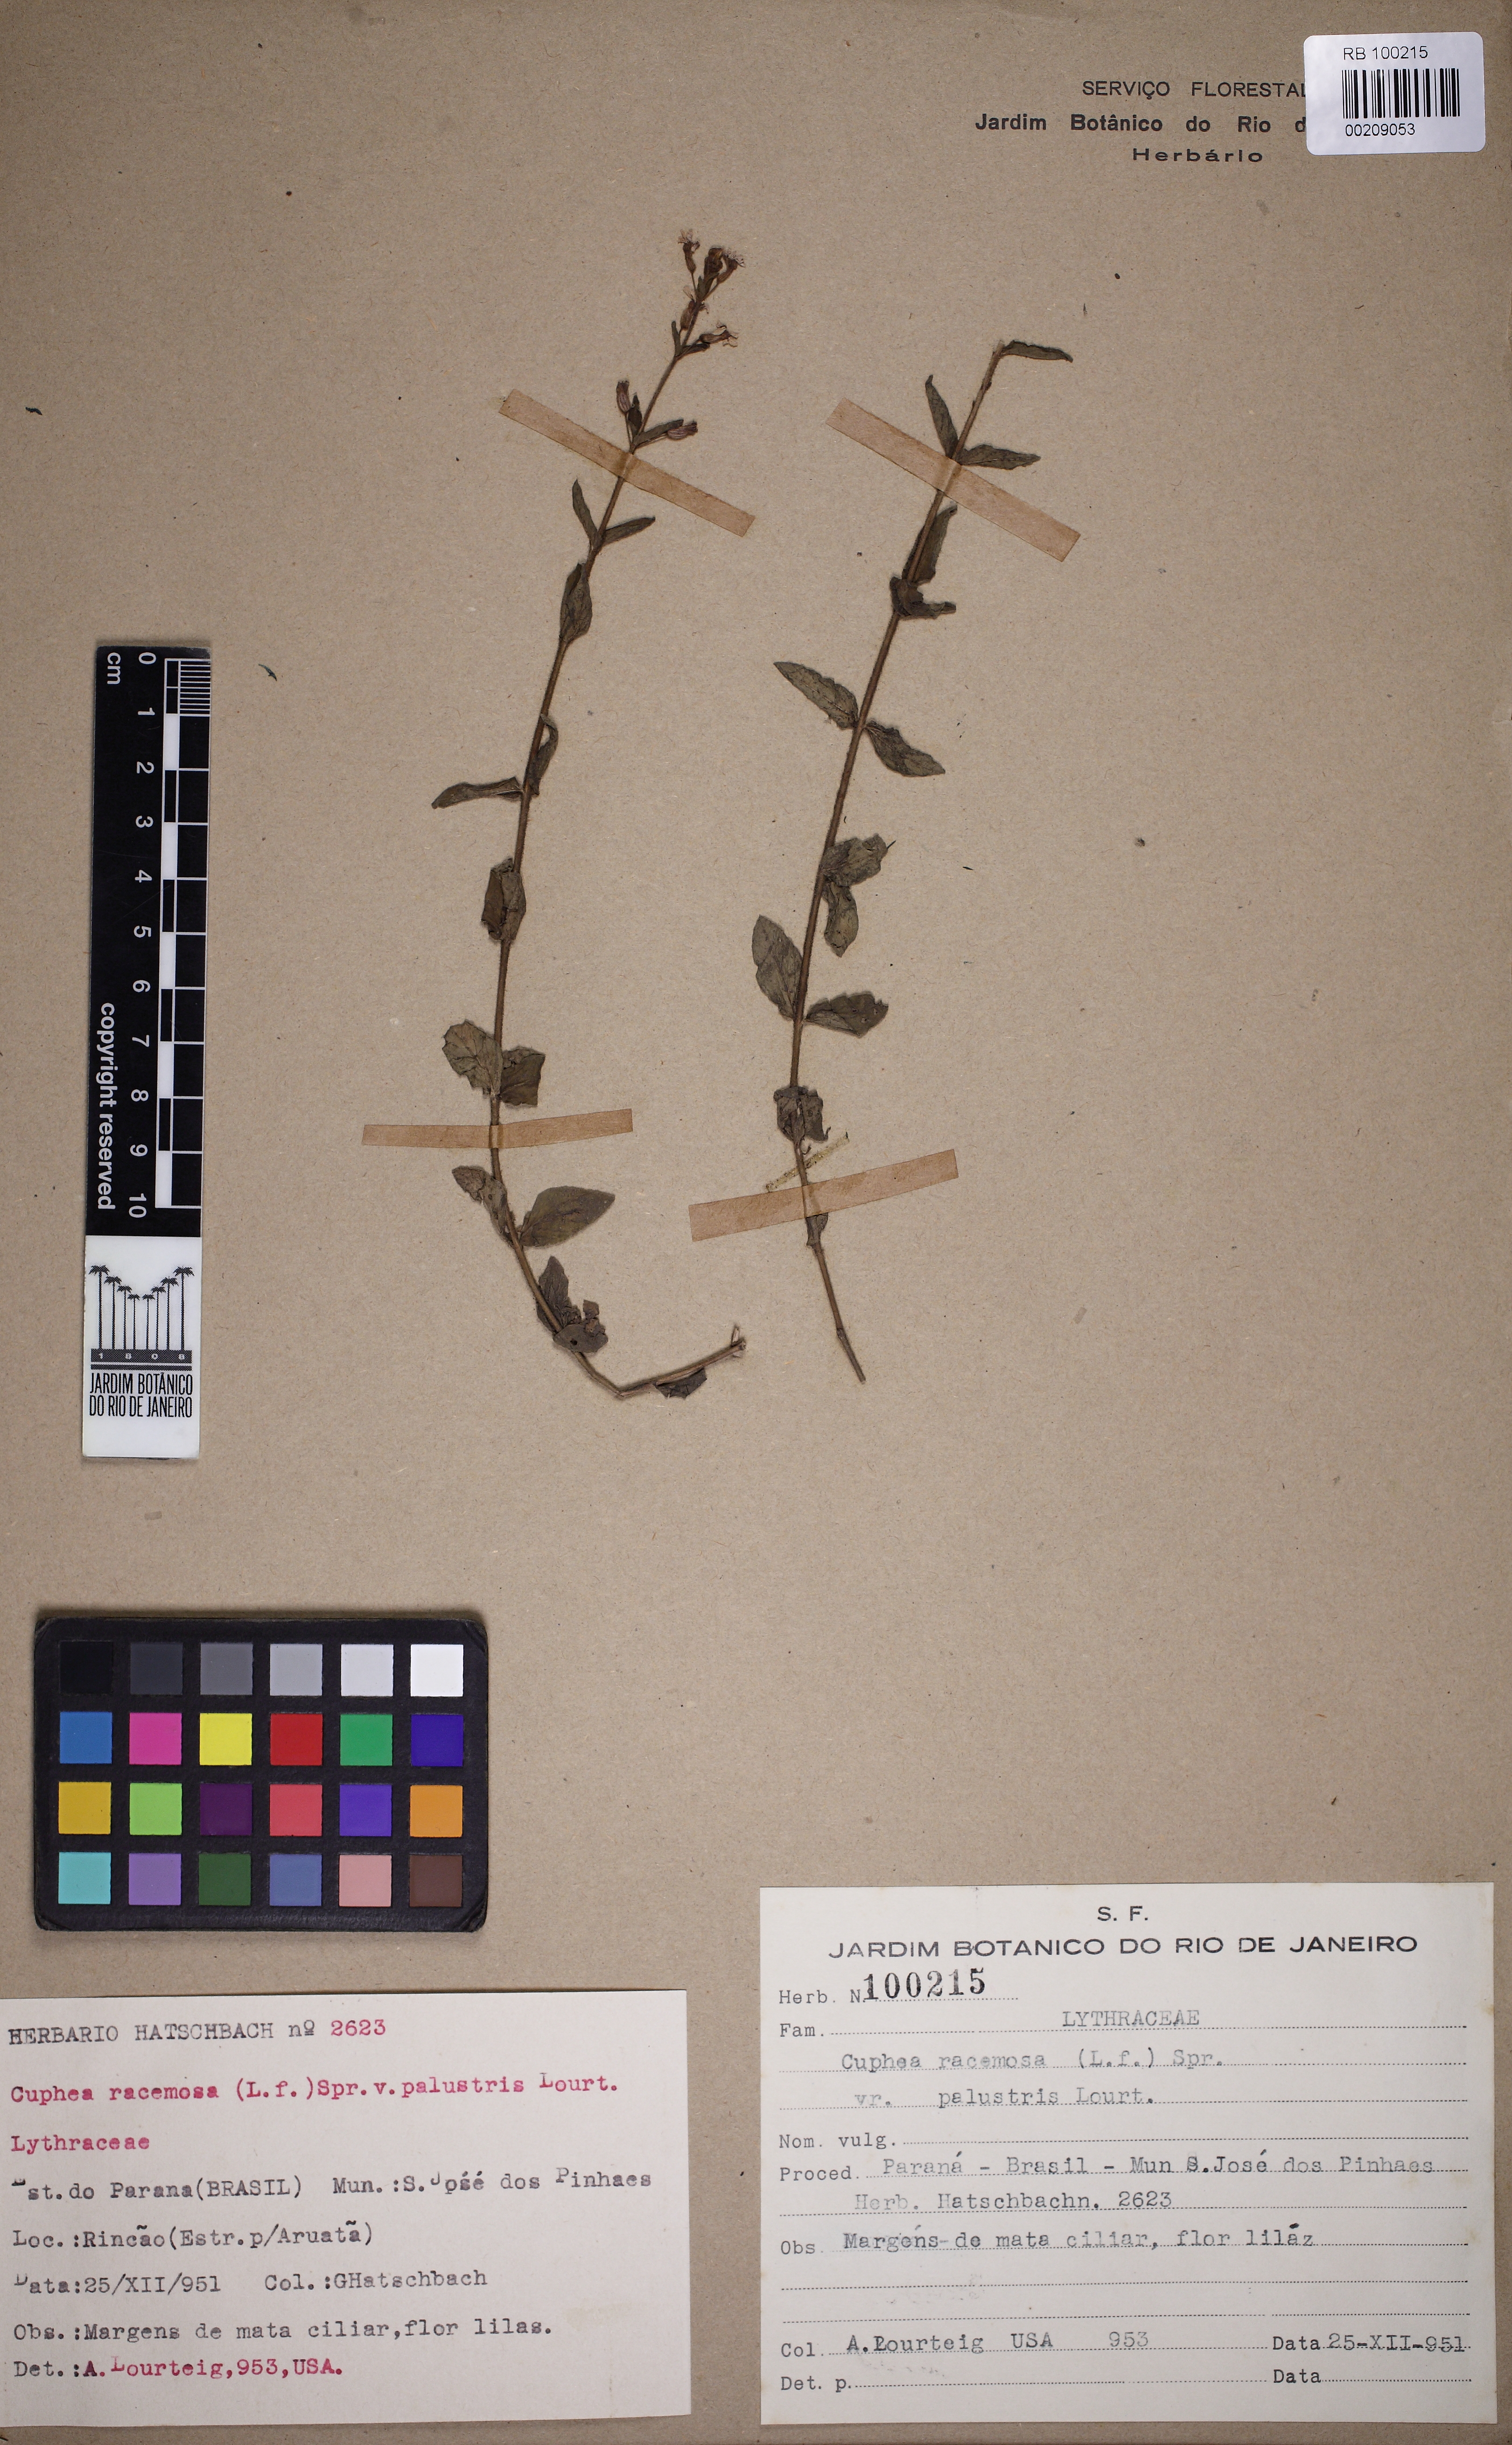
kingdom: Plantae
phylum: Tracheophyta
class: Magnoliopsida
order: Myrtales
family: Lythraceae
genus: Cuphea
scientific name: Cuphea racemosa
